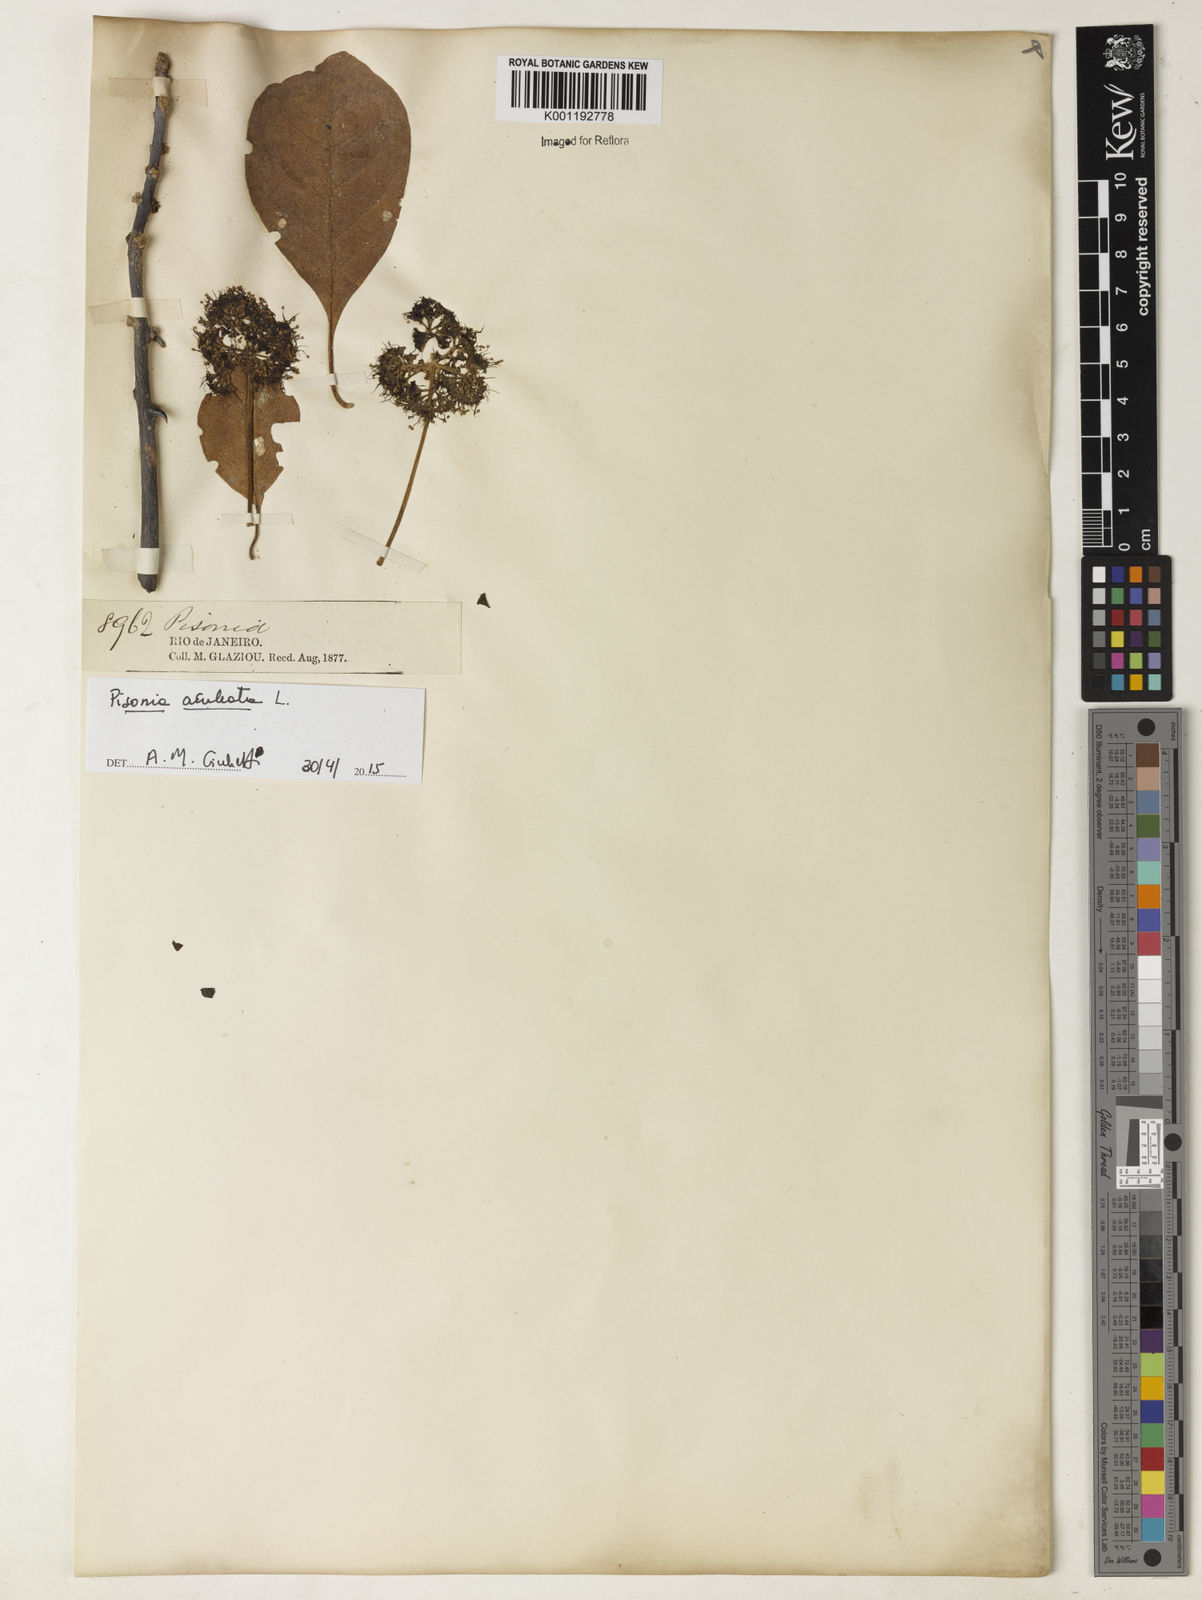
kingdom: Plantae
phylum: Tracheophyta
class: Magnoliopsida
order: Caryophyllales
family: Nyctaginaceae
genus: Pisonia
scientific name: Pisonia aculeata
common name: Cockspur vine
